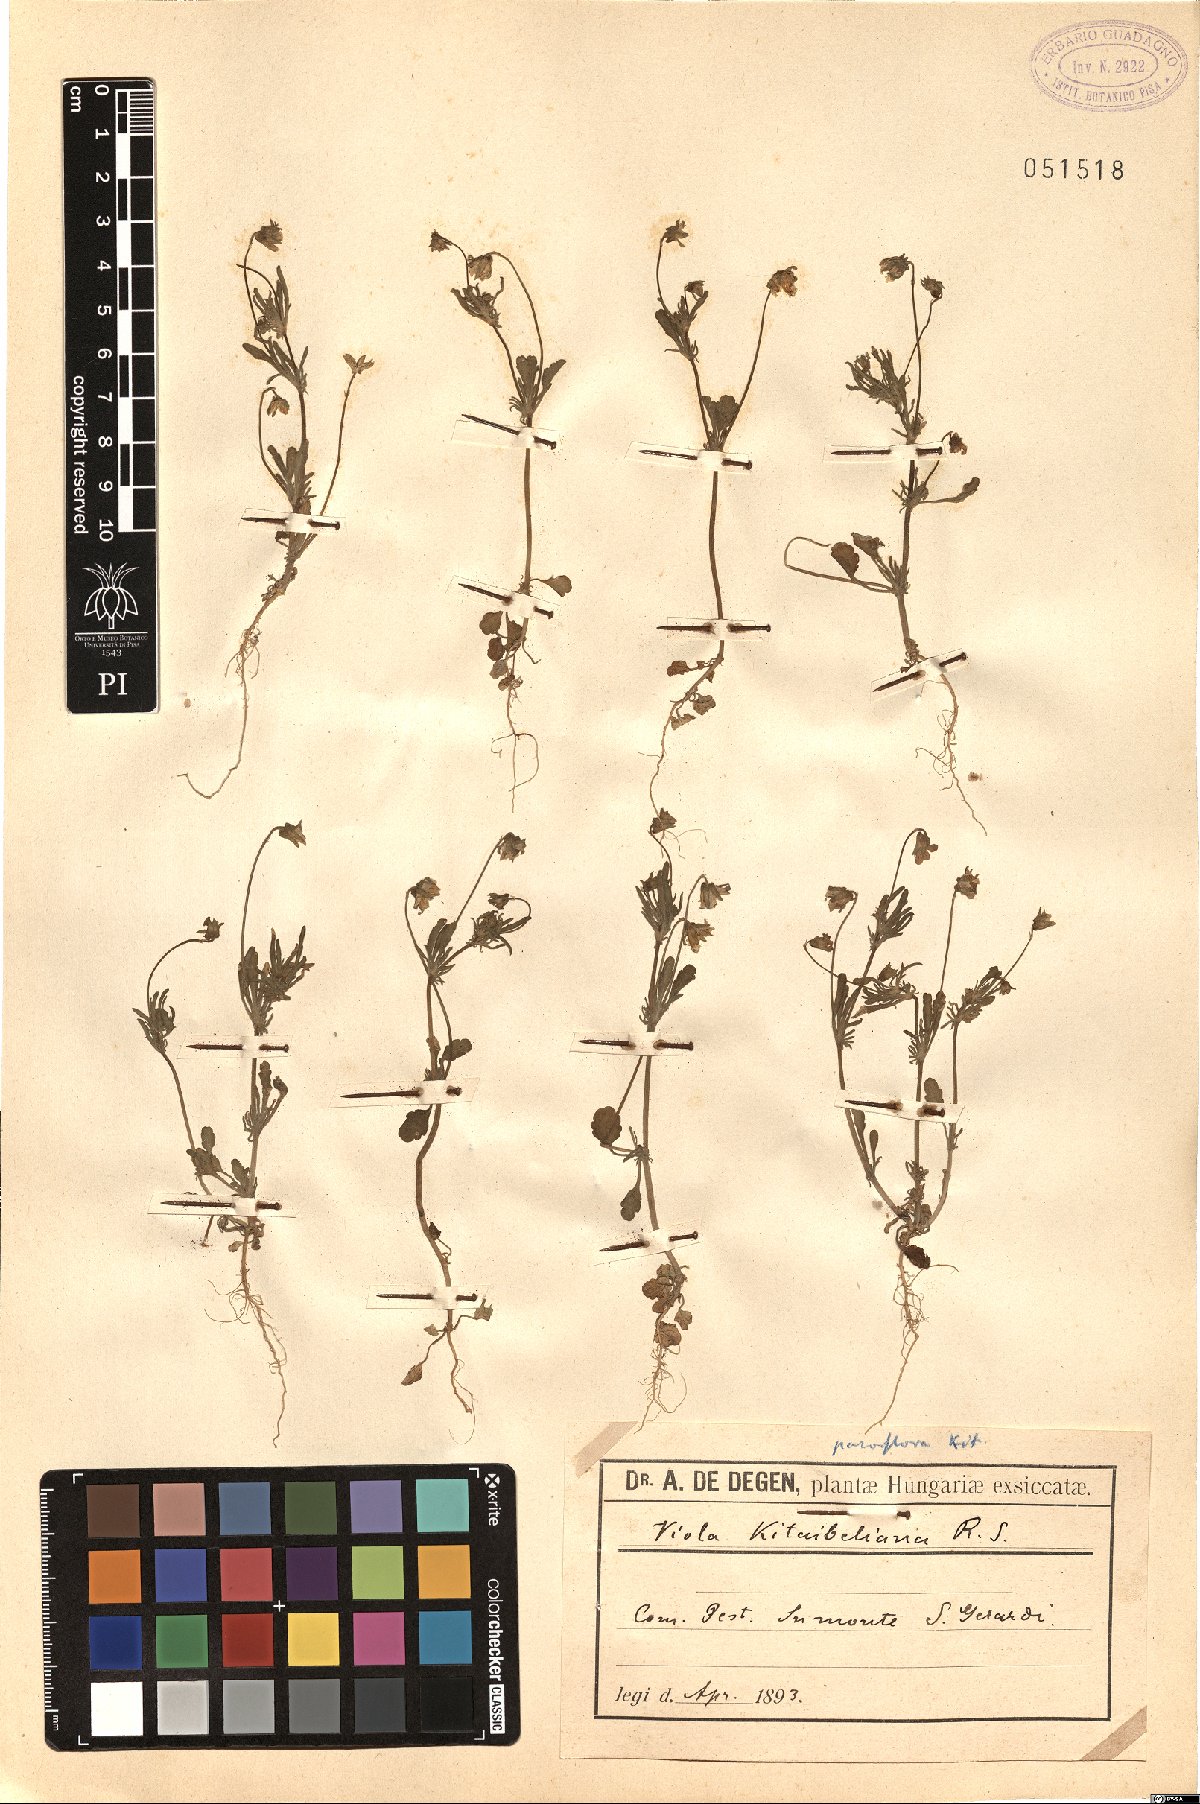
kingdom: Plantae
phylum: Tracheophyta
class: Magnoliopsida
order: Malpighiales
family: Violaceae
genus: Viola
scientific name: Viola tricolor
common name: Pansy
